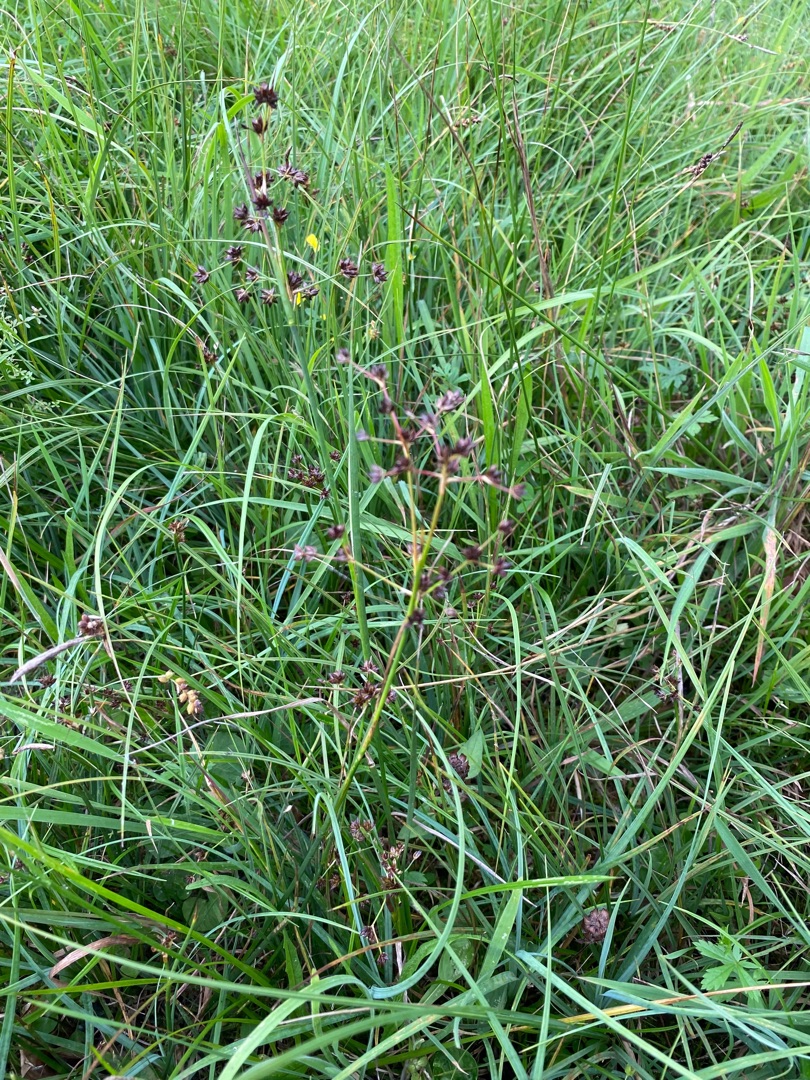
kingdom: Plantae
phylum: Tracheophyta
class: Liliopsida
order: Poales
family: Juncaceae
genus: Juncus
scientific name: Juncus articulatus
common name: Glanskapslet siv
